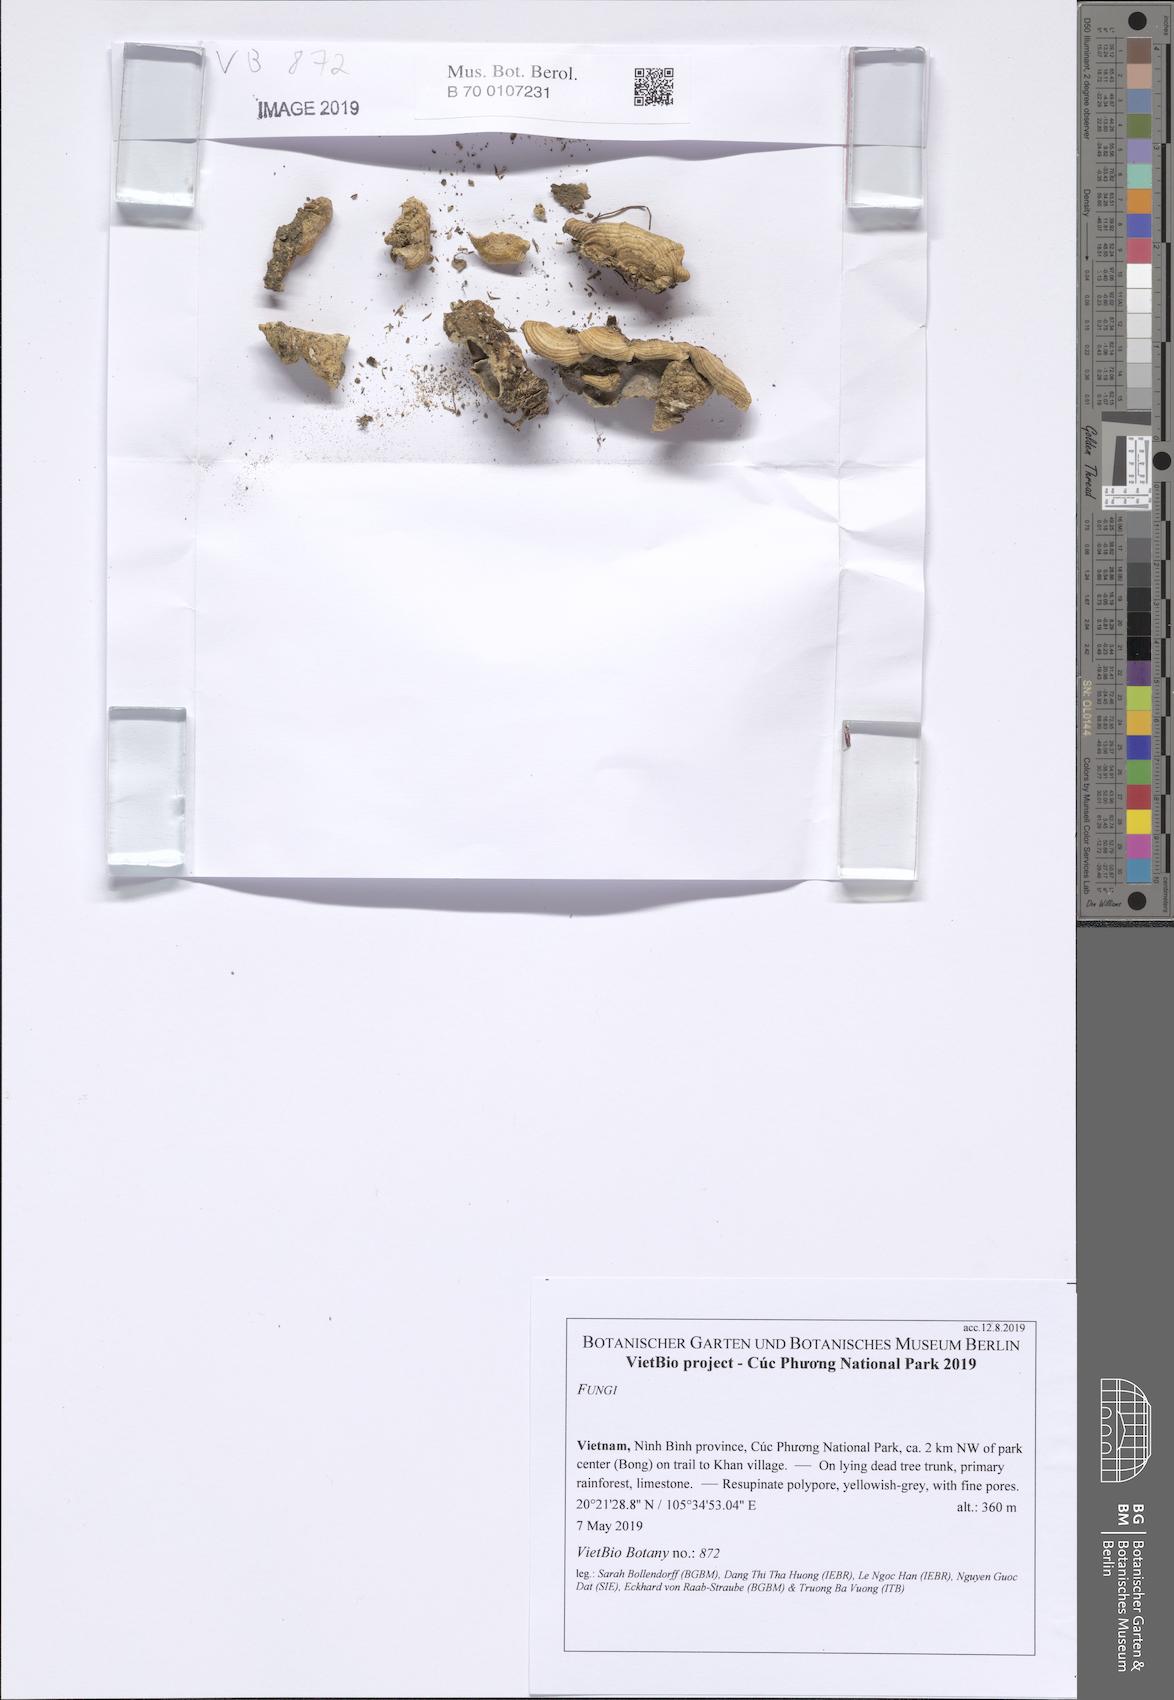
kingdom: Fungi
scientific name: Fungi
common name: Fungi
